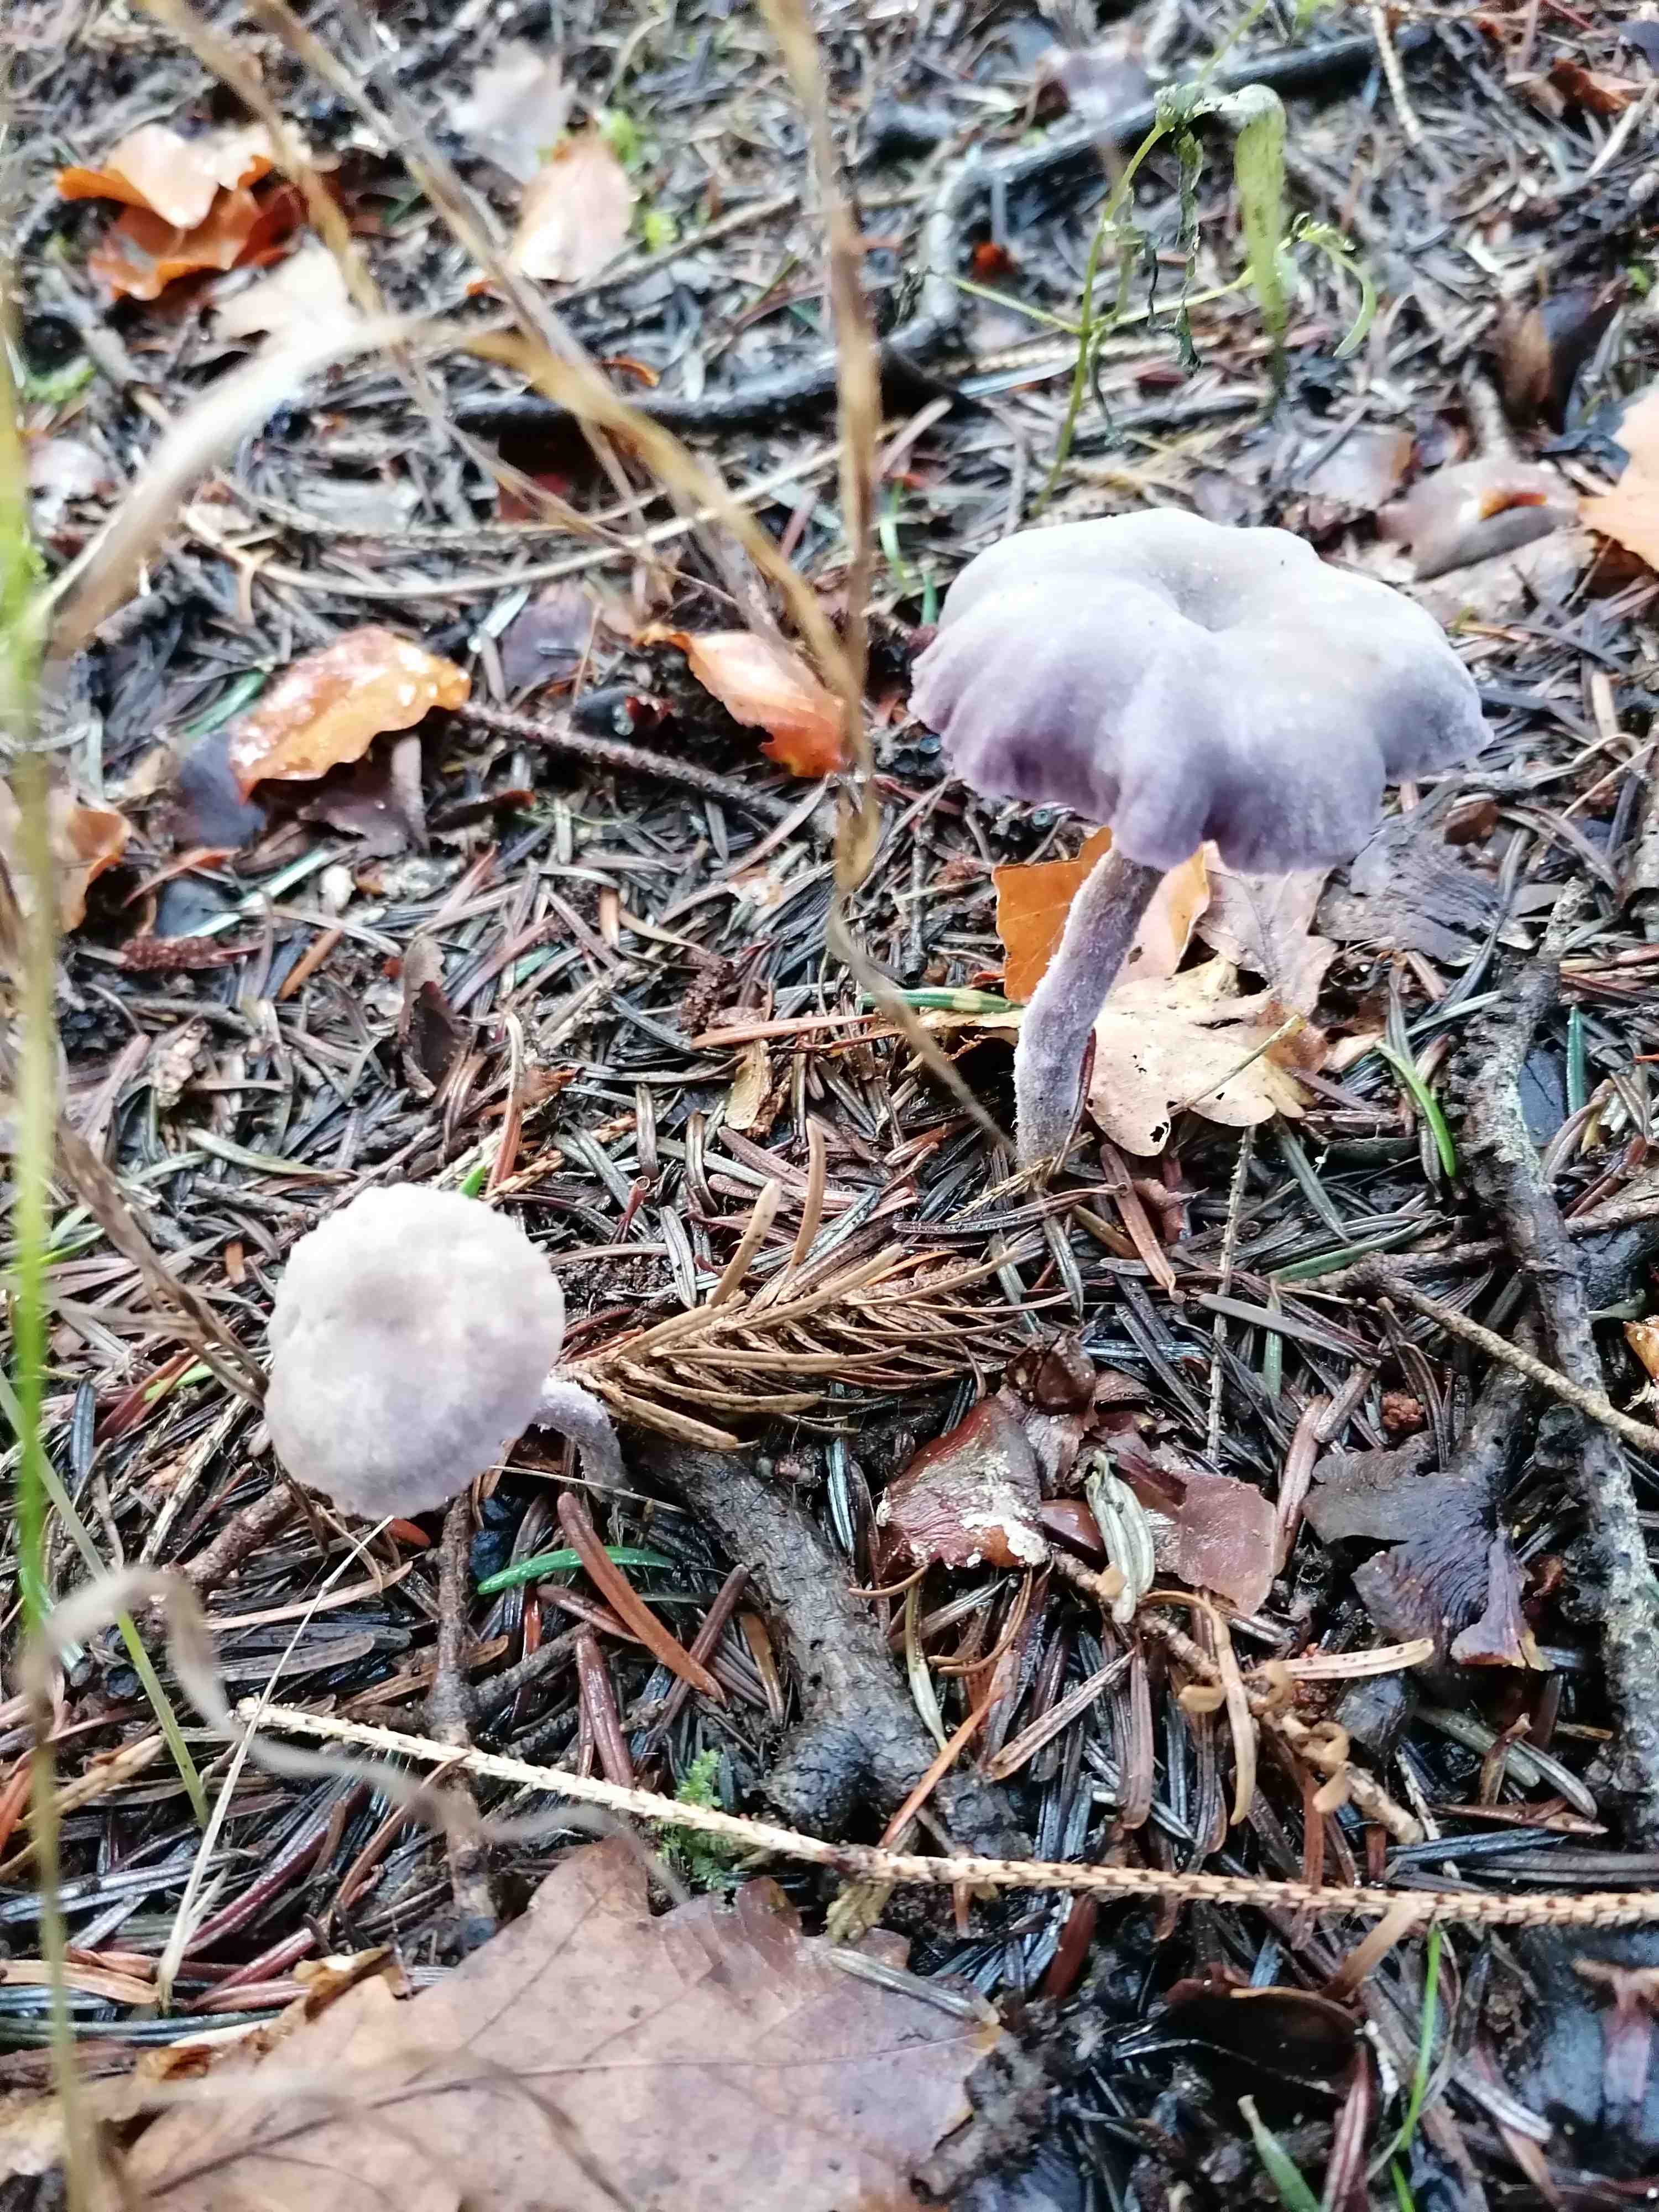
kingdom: Fungi
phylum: Basidiomycota
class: Agaricomycetes
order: Agaricales
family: Hydnangiaceae
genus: Laccaria
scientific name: Laccaria amethystina
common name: violet ametysthat
